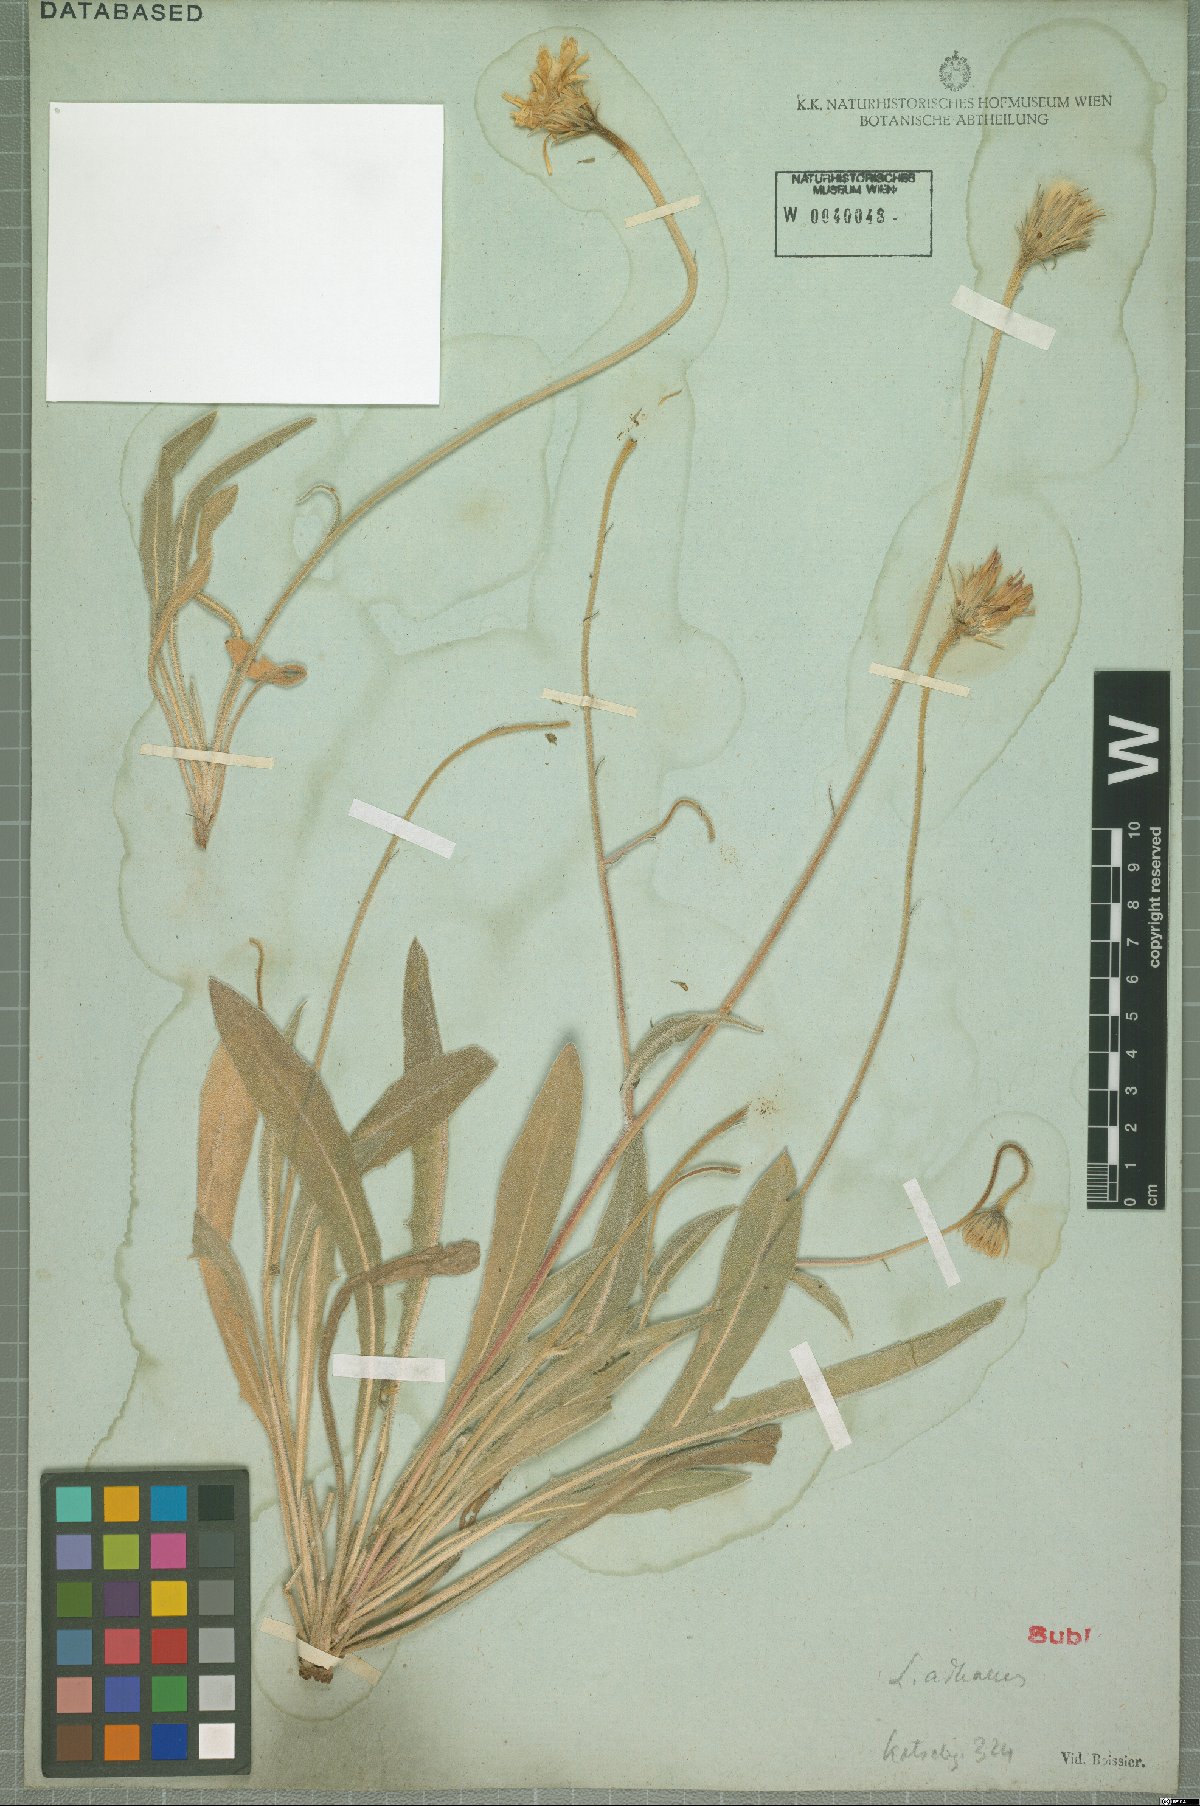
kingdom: Plantae
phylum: Tracheophyta
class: Magnoliopsida
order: Asterales
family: Asteraceae
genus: Leontodon
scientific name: Leontodon oxylepis
